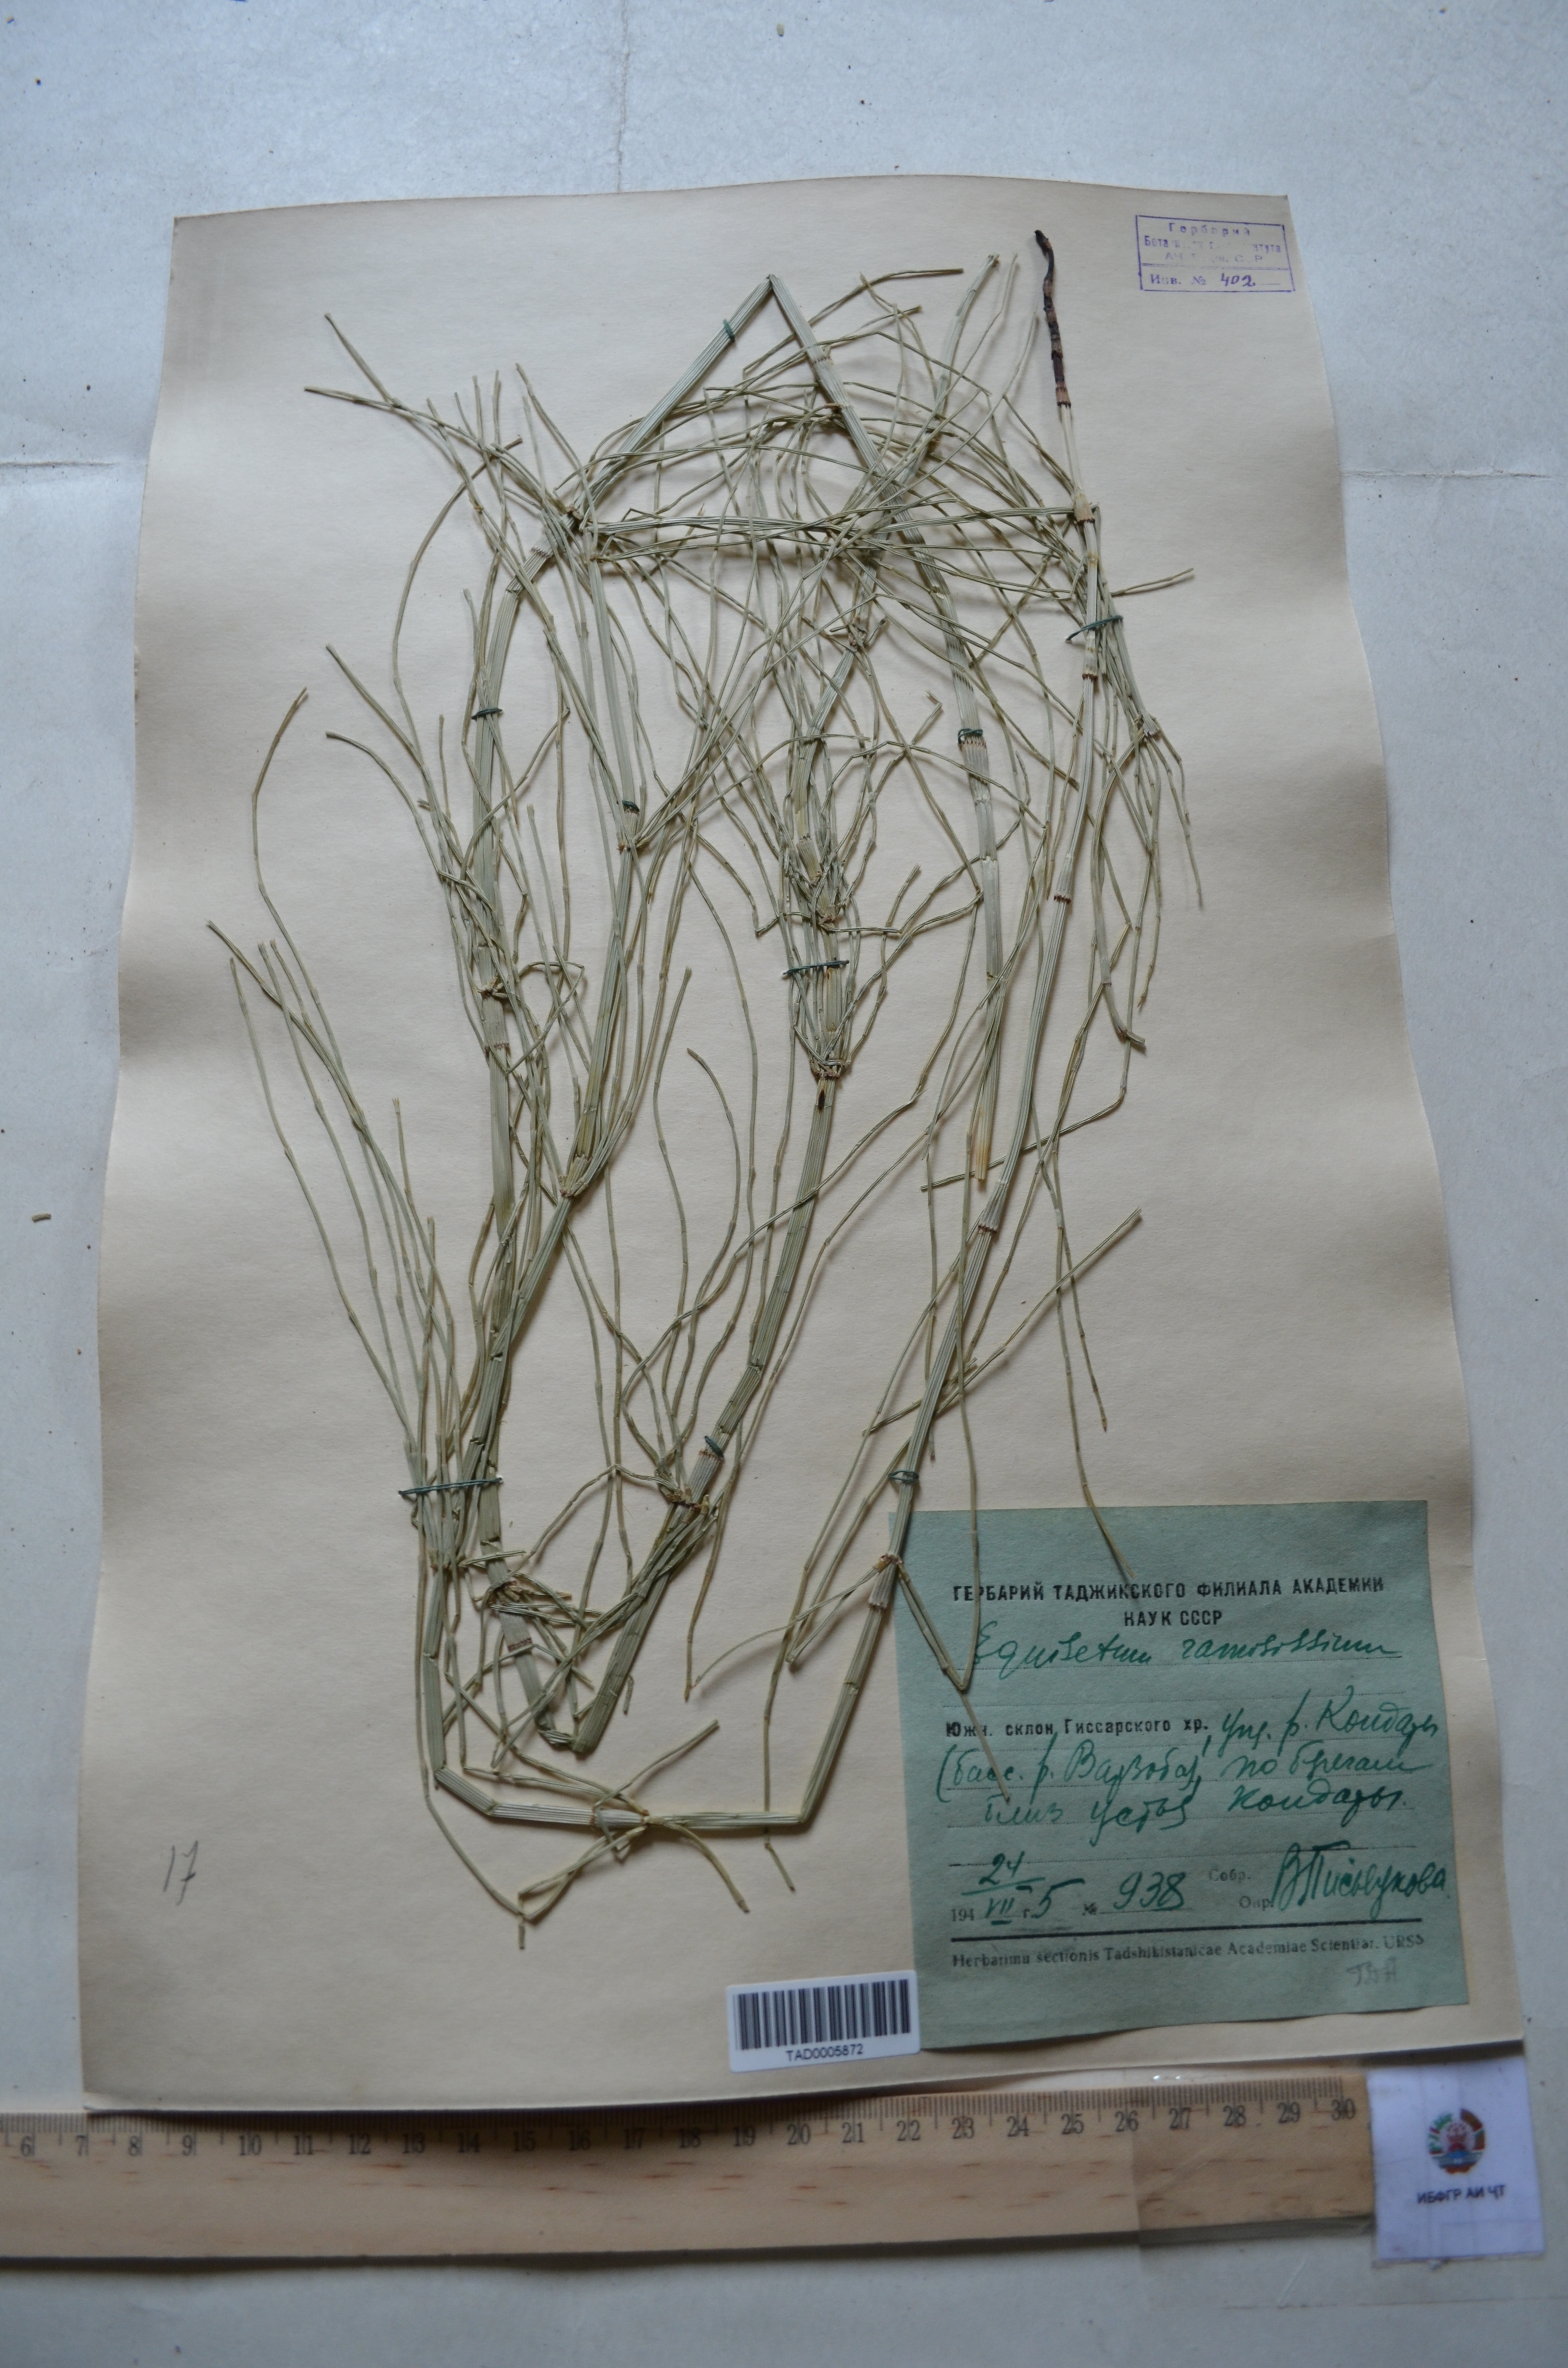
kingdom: Plantae
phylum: Tracheophyta
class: Polypodiopsida
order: Equisetales
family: Equisetaceae
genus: Equisetum
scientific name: Equisetum ramosissimum
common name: Branched horsetail
